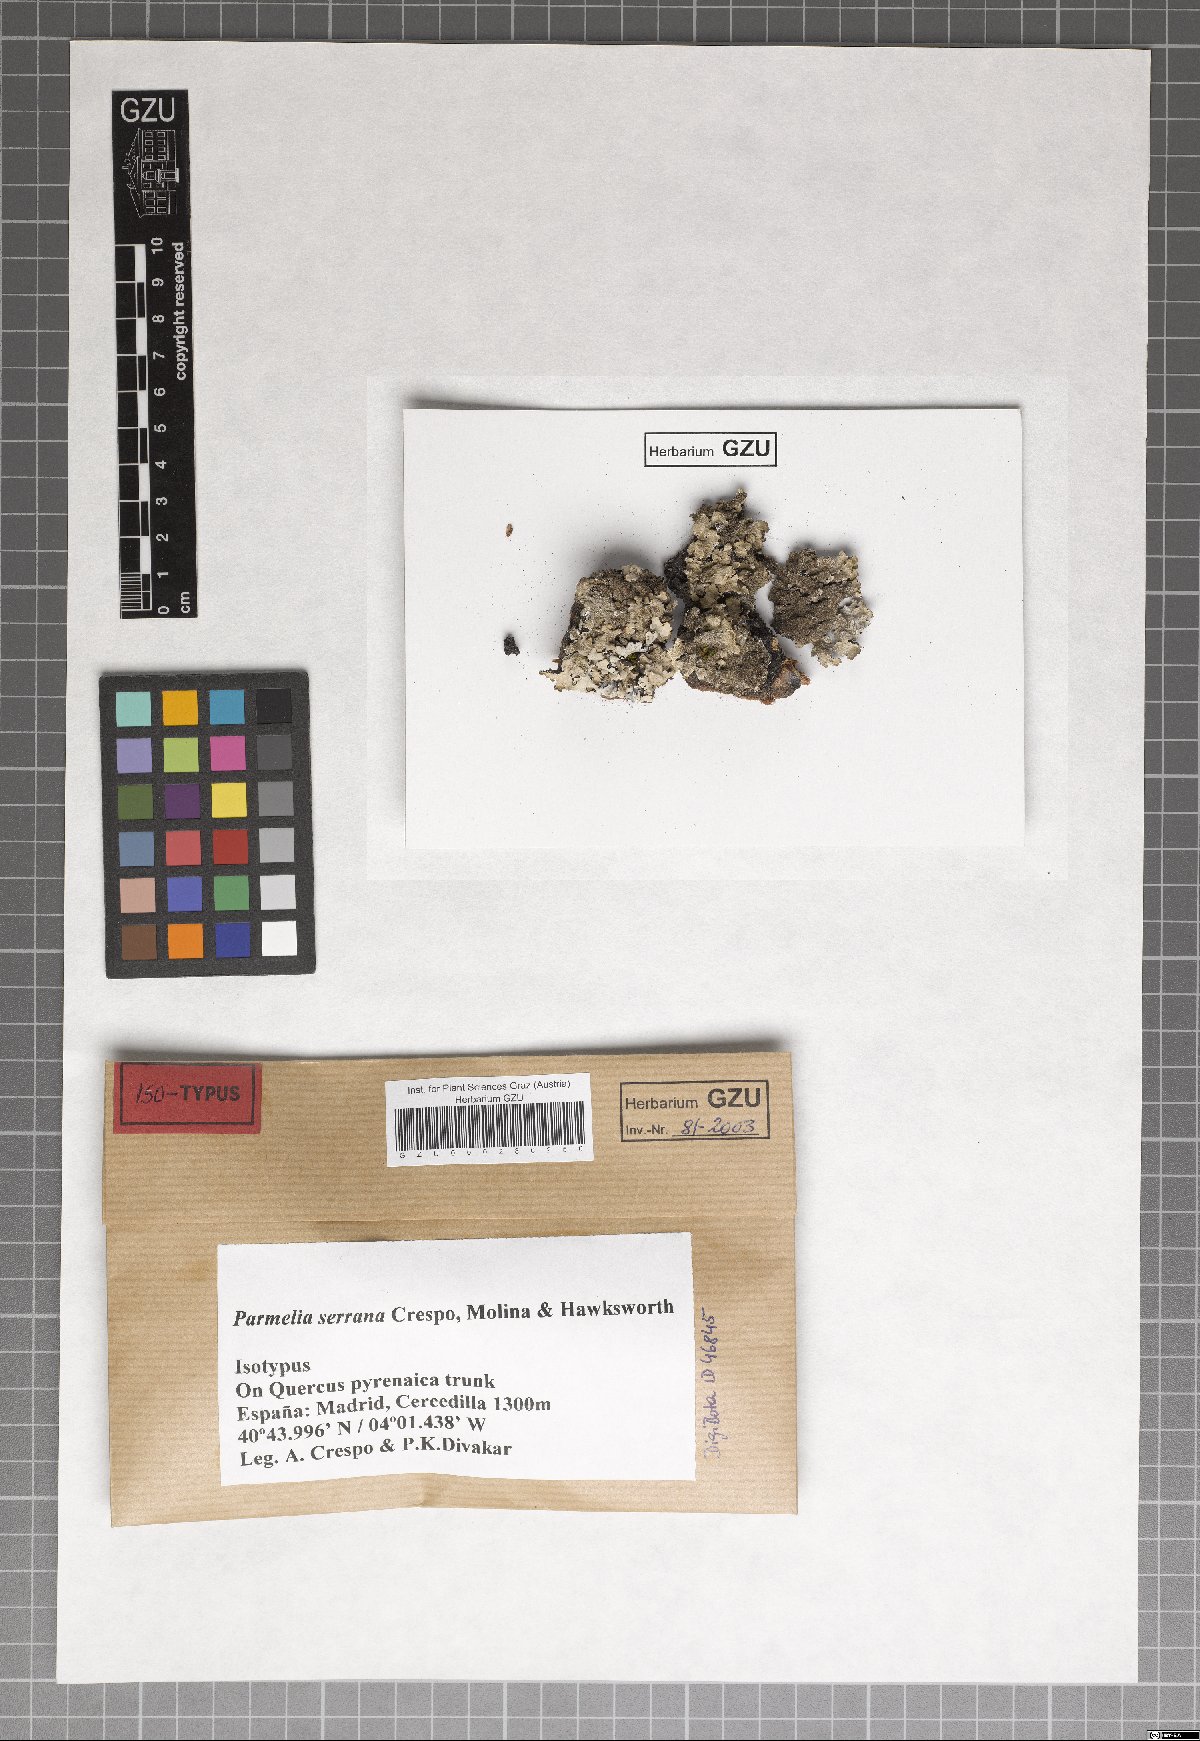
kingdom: Fungi
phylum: Ascomycota
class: Lecanoromycetes
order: Lecanorales
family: Parmeliaceae
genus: Parmelinella
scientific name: Parmelinella
